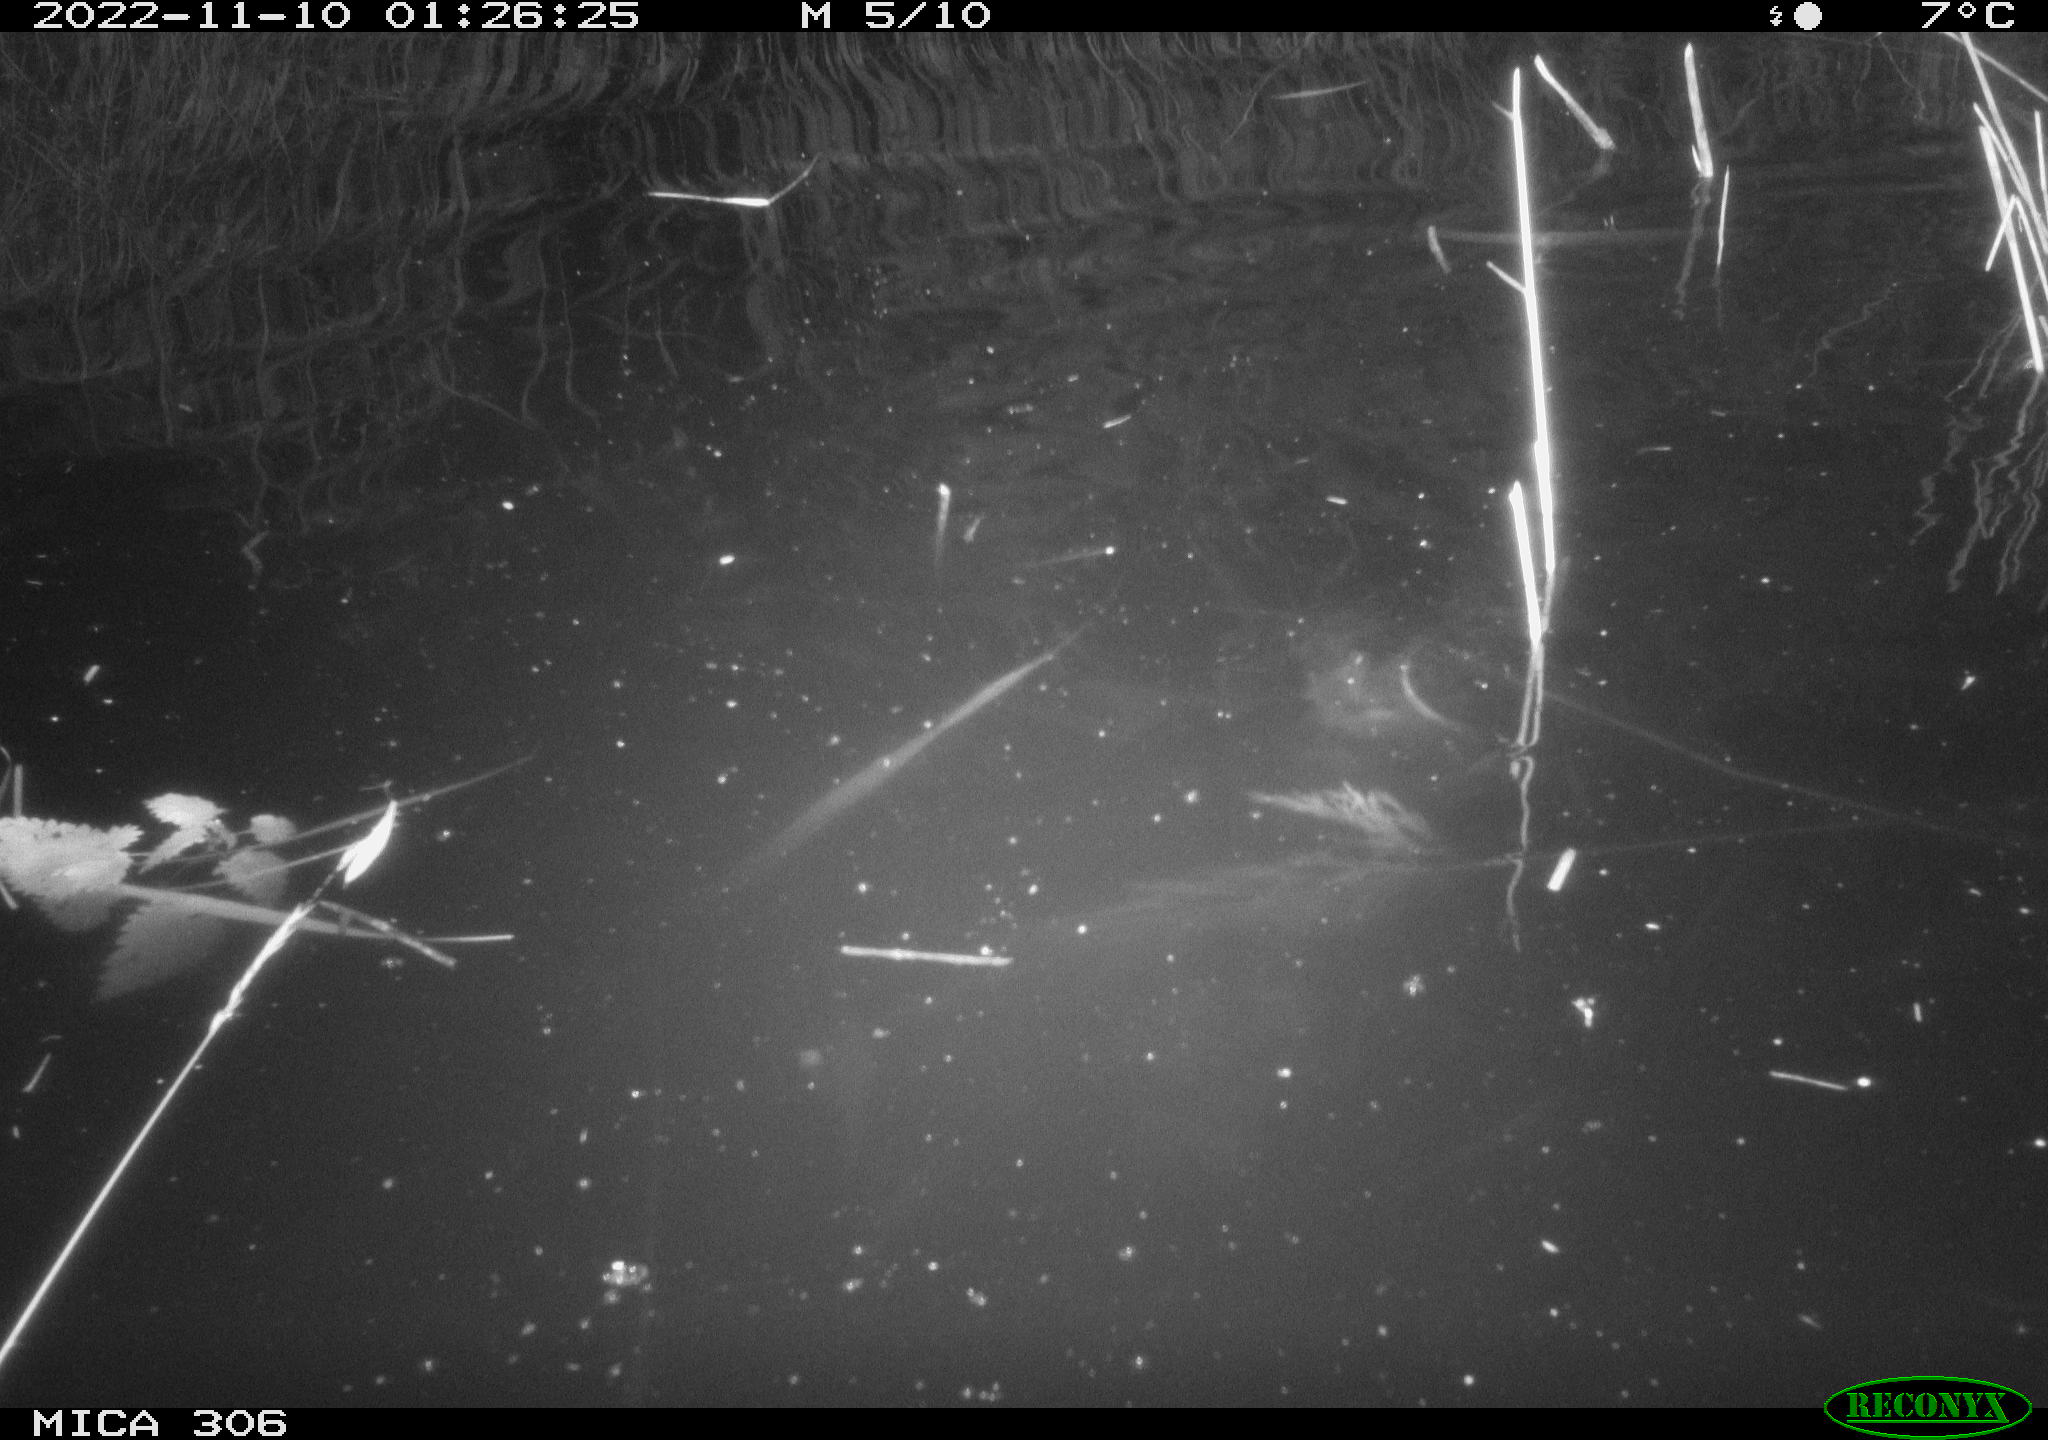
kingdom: Animalia
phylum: Chordata
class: Mammalia
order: Rodentia
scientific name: Rodentia
